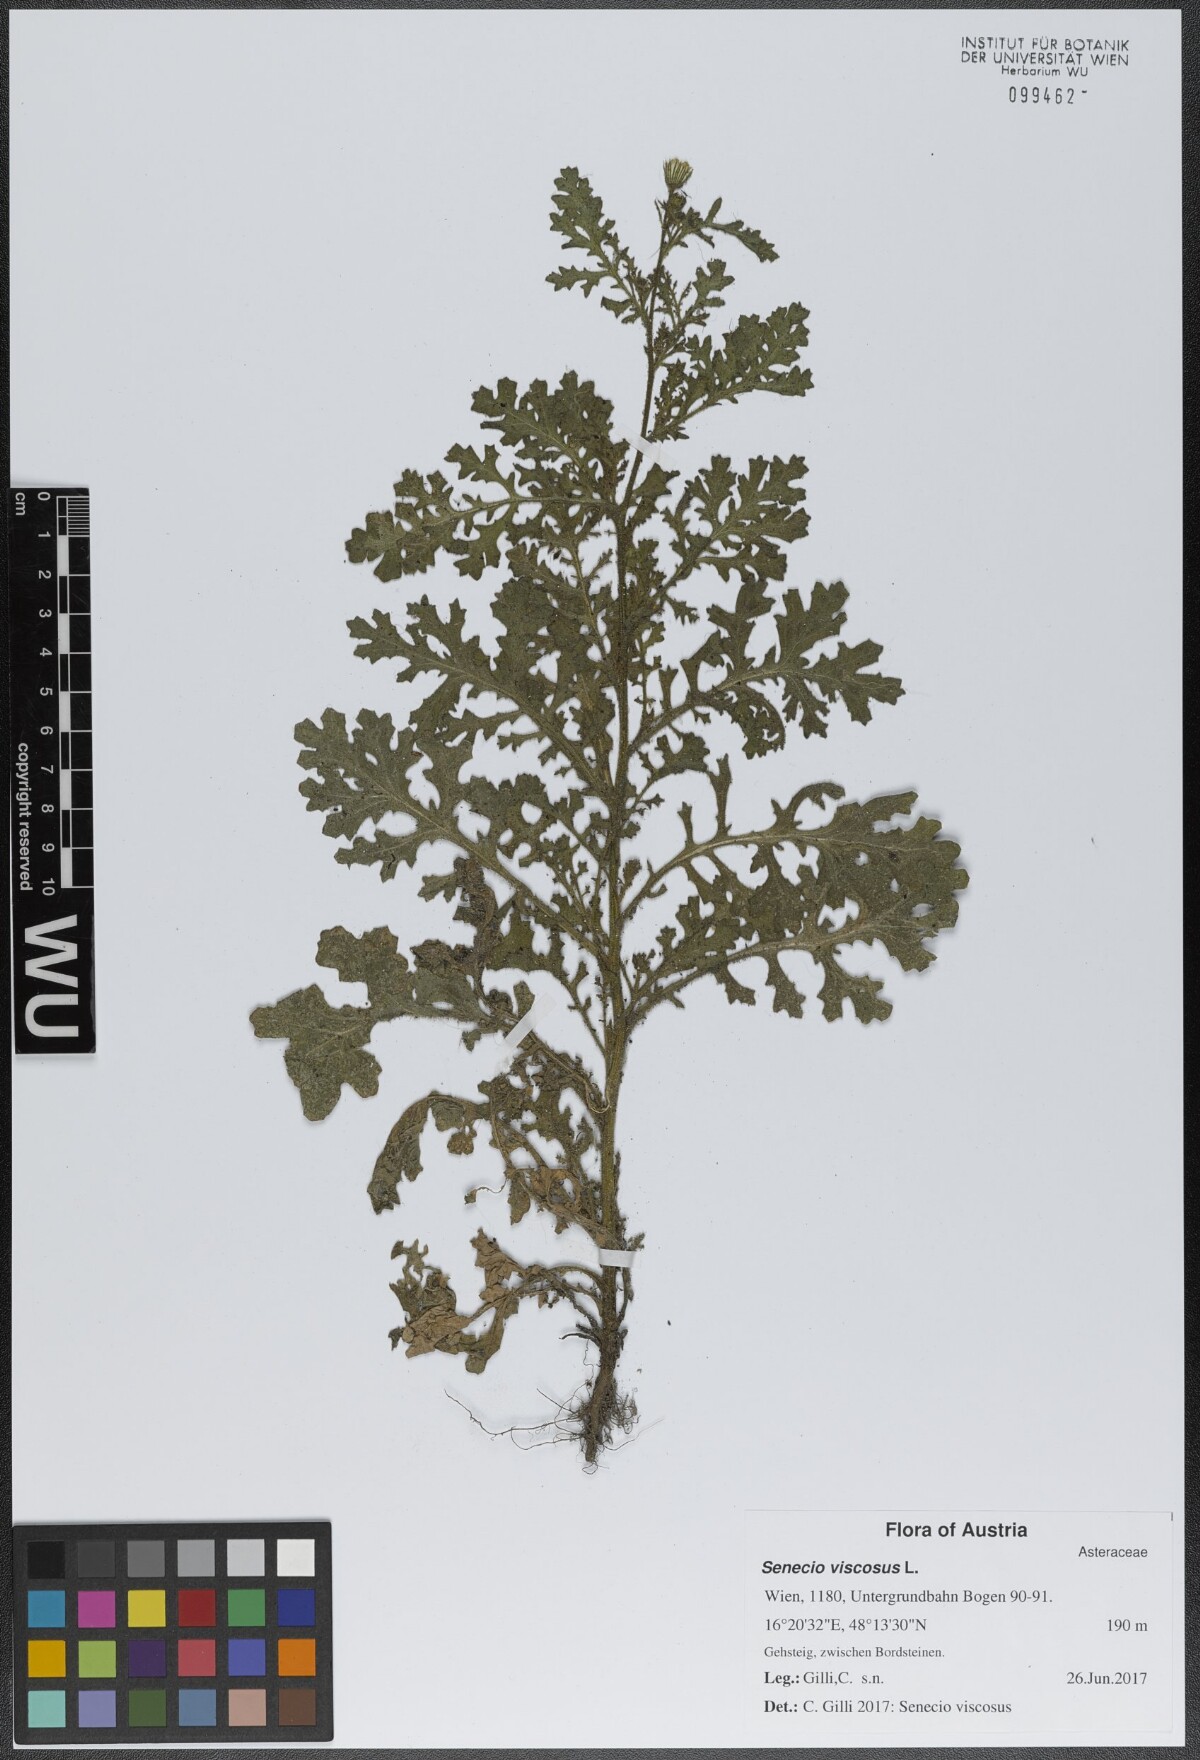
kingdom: Plantae
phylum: Tracheophyta
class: Magnoliopsida
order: Asterales
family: Asteraceae
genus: Senecio
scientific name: Senecio viscosus
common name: Sticky groundsel
